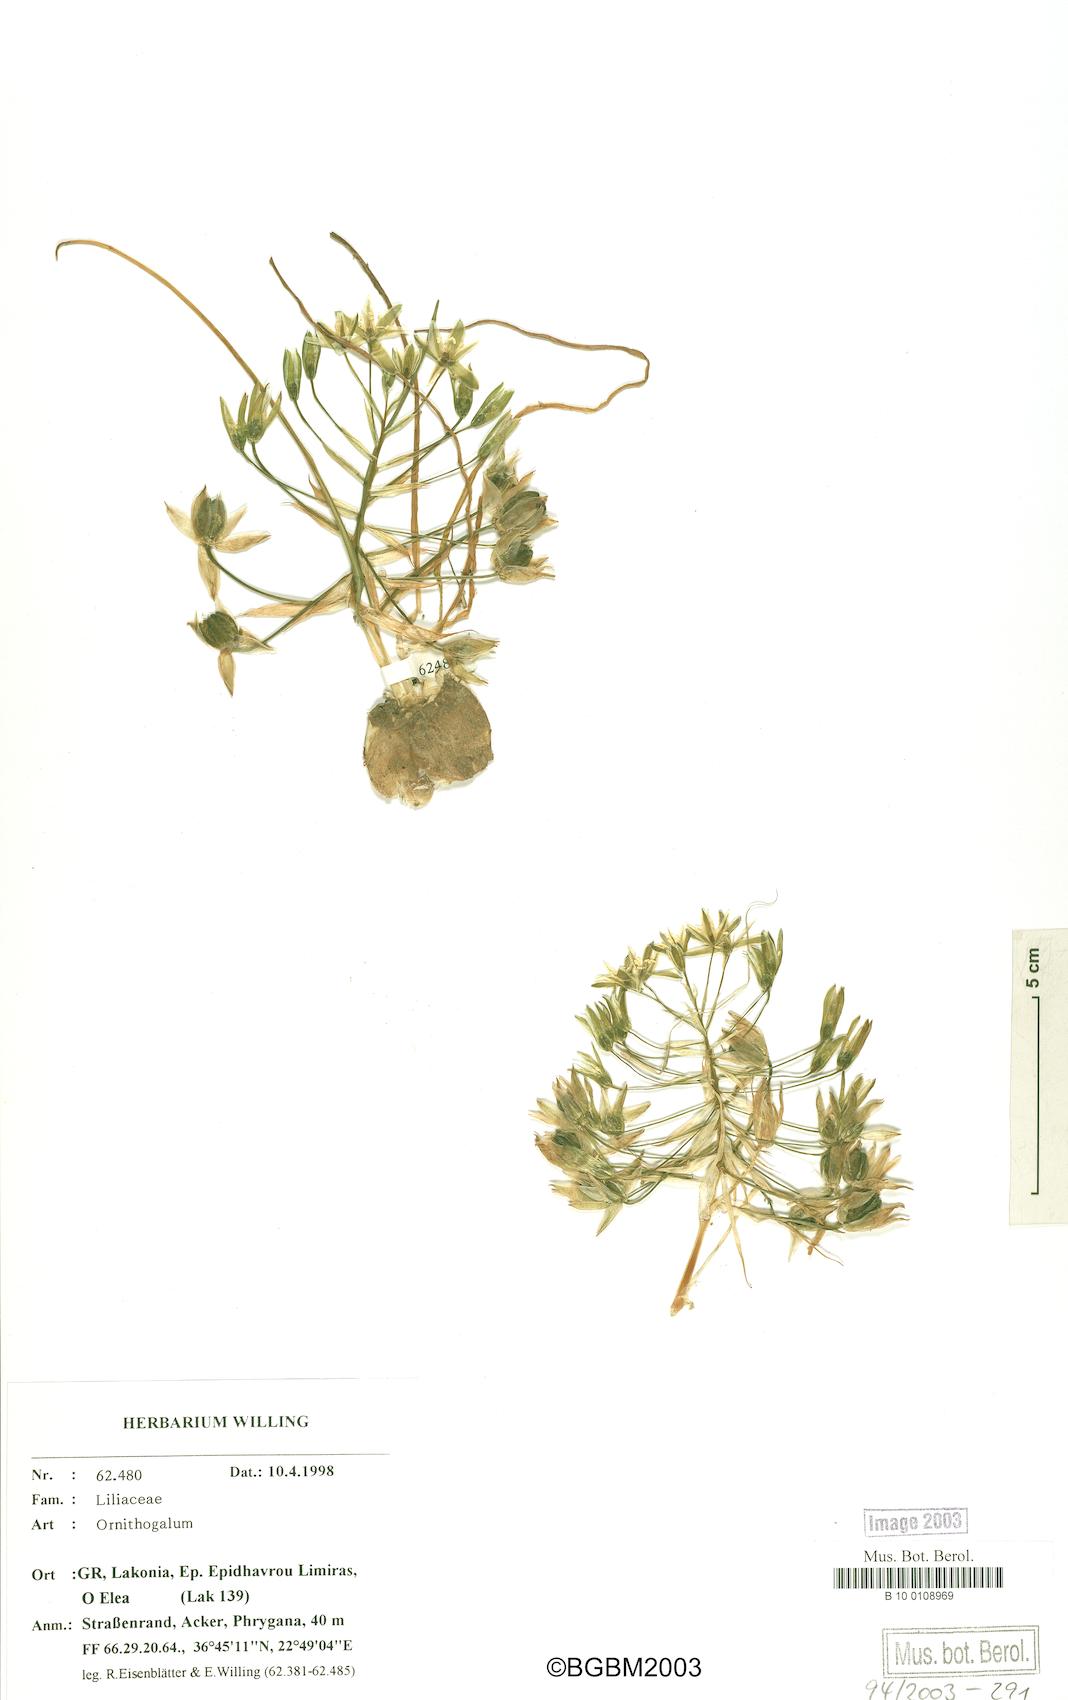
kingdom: Plantae
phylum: Tracheophyta
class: Liliopsida
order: Asparagales
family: Asparagaceae
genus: Ornithogalum
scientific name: Ornithogalum collinum
